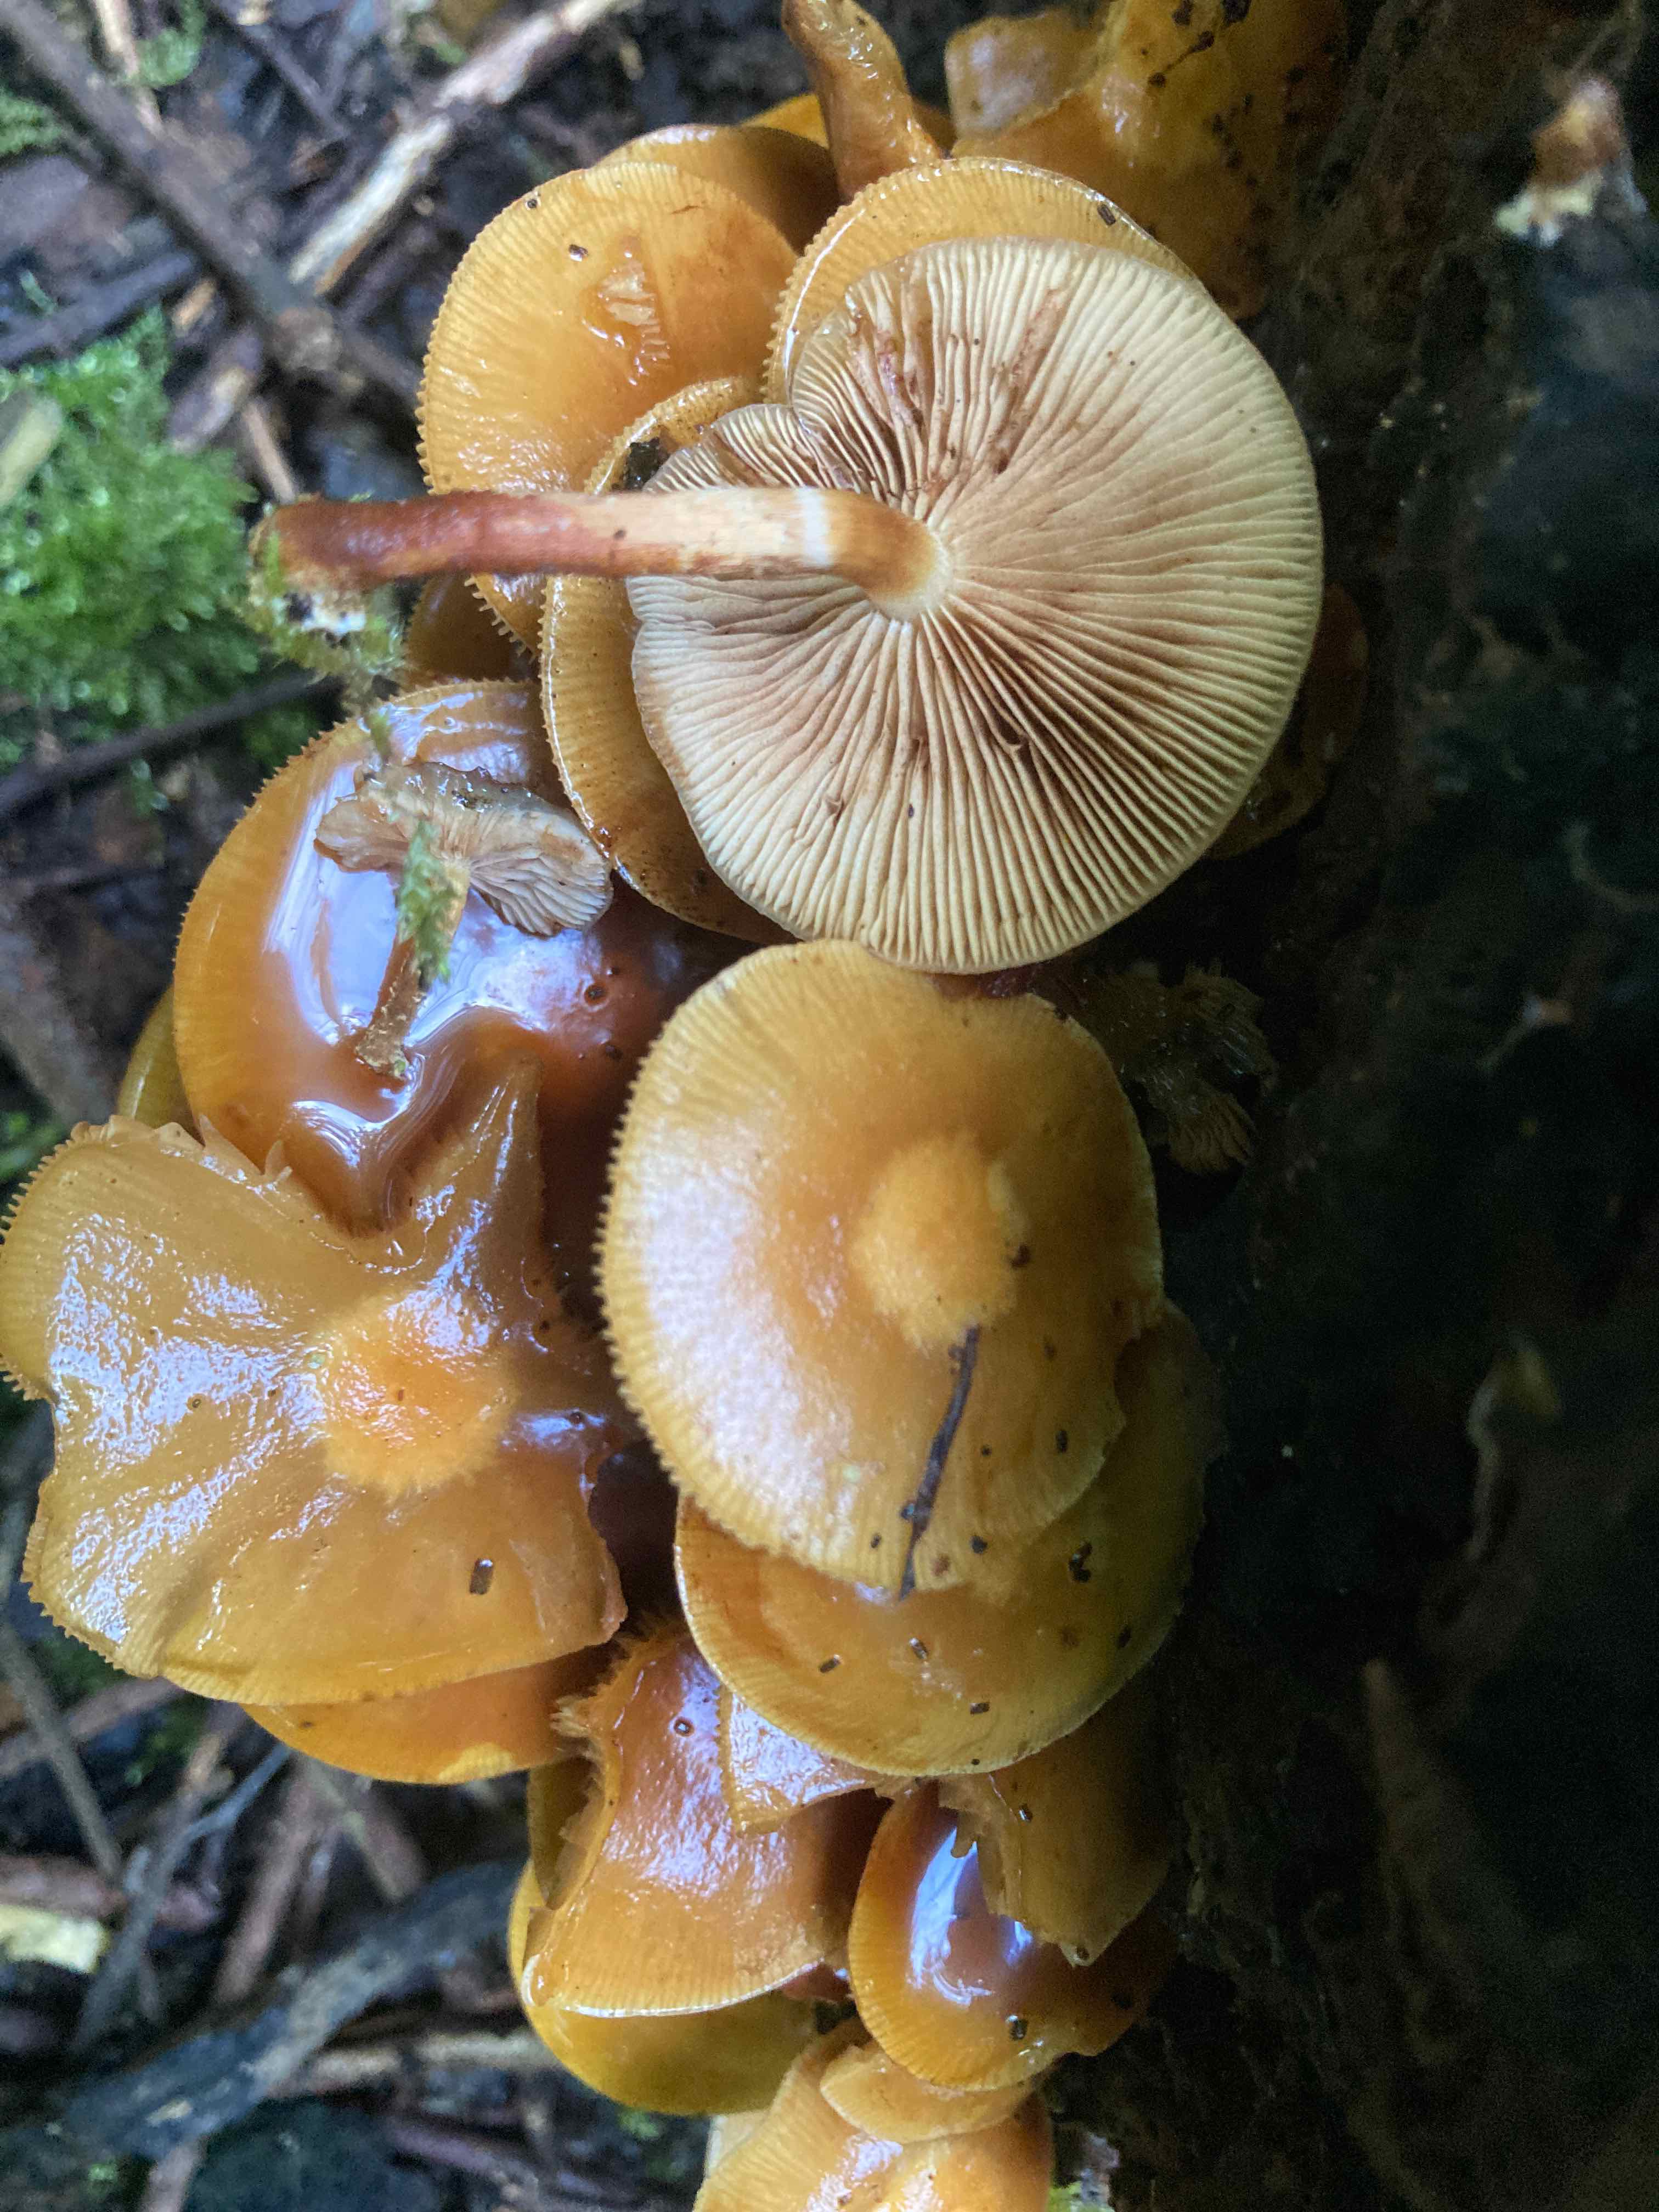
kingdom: Fungi
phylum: Basidiomycota
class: Agaricomycetes
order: Agaricales
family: Strophariaceae
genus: Kuehneromyces
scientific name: Kuehneromyces mutabilis
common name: foranderlig skælhat
